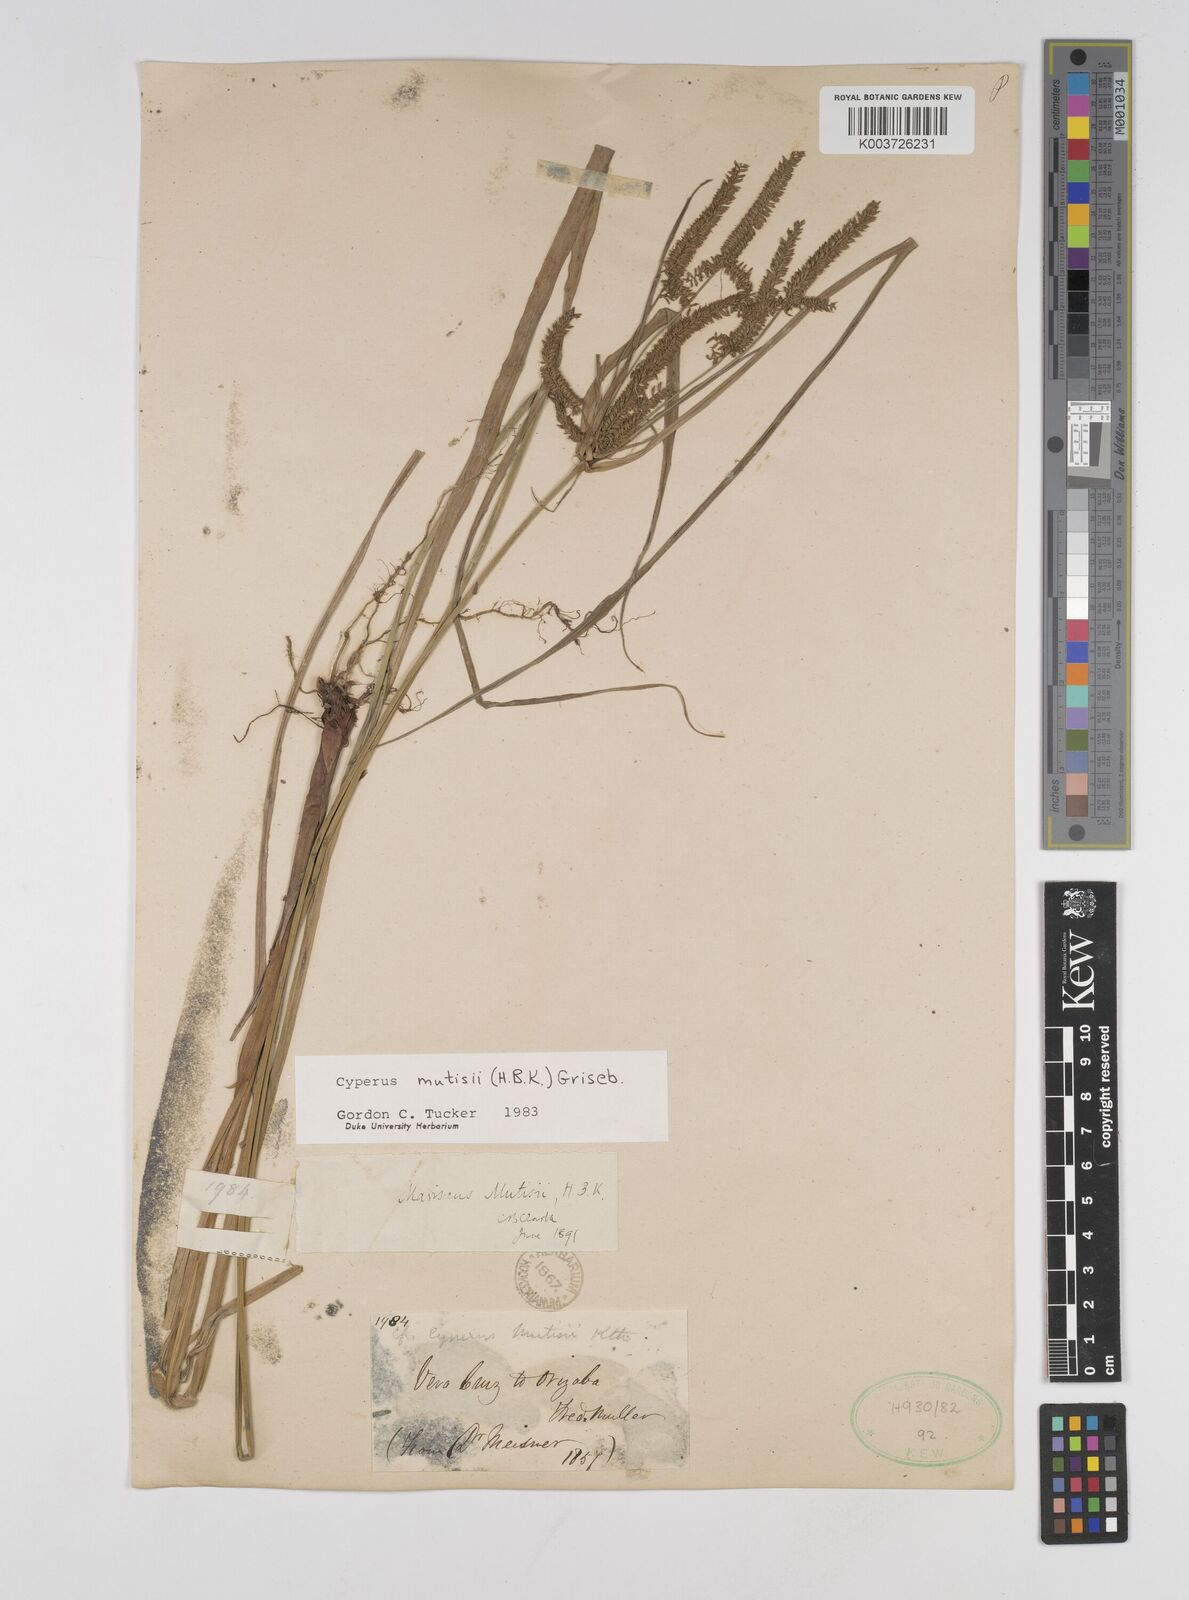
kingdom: Plantae
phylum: Tracheophyta
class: Liliopsida
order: Poales
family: Cyperaceae
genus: Cyperus
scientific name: Cyperus mutisii
